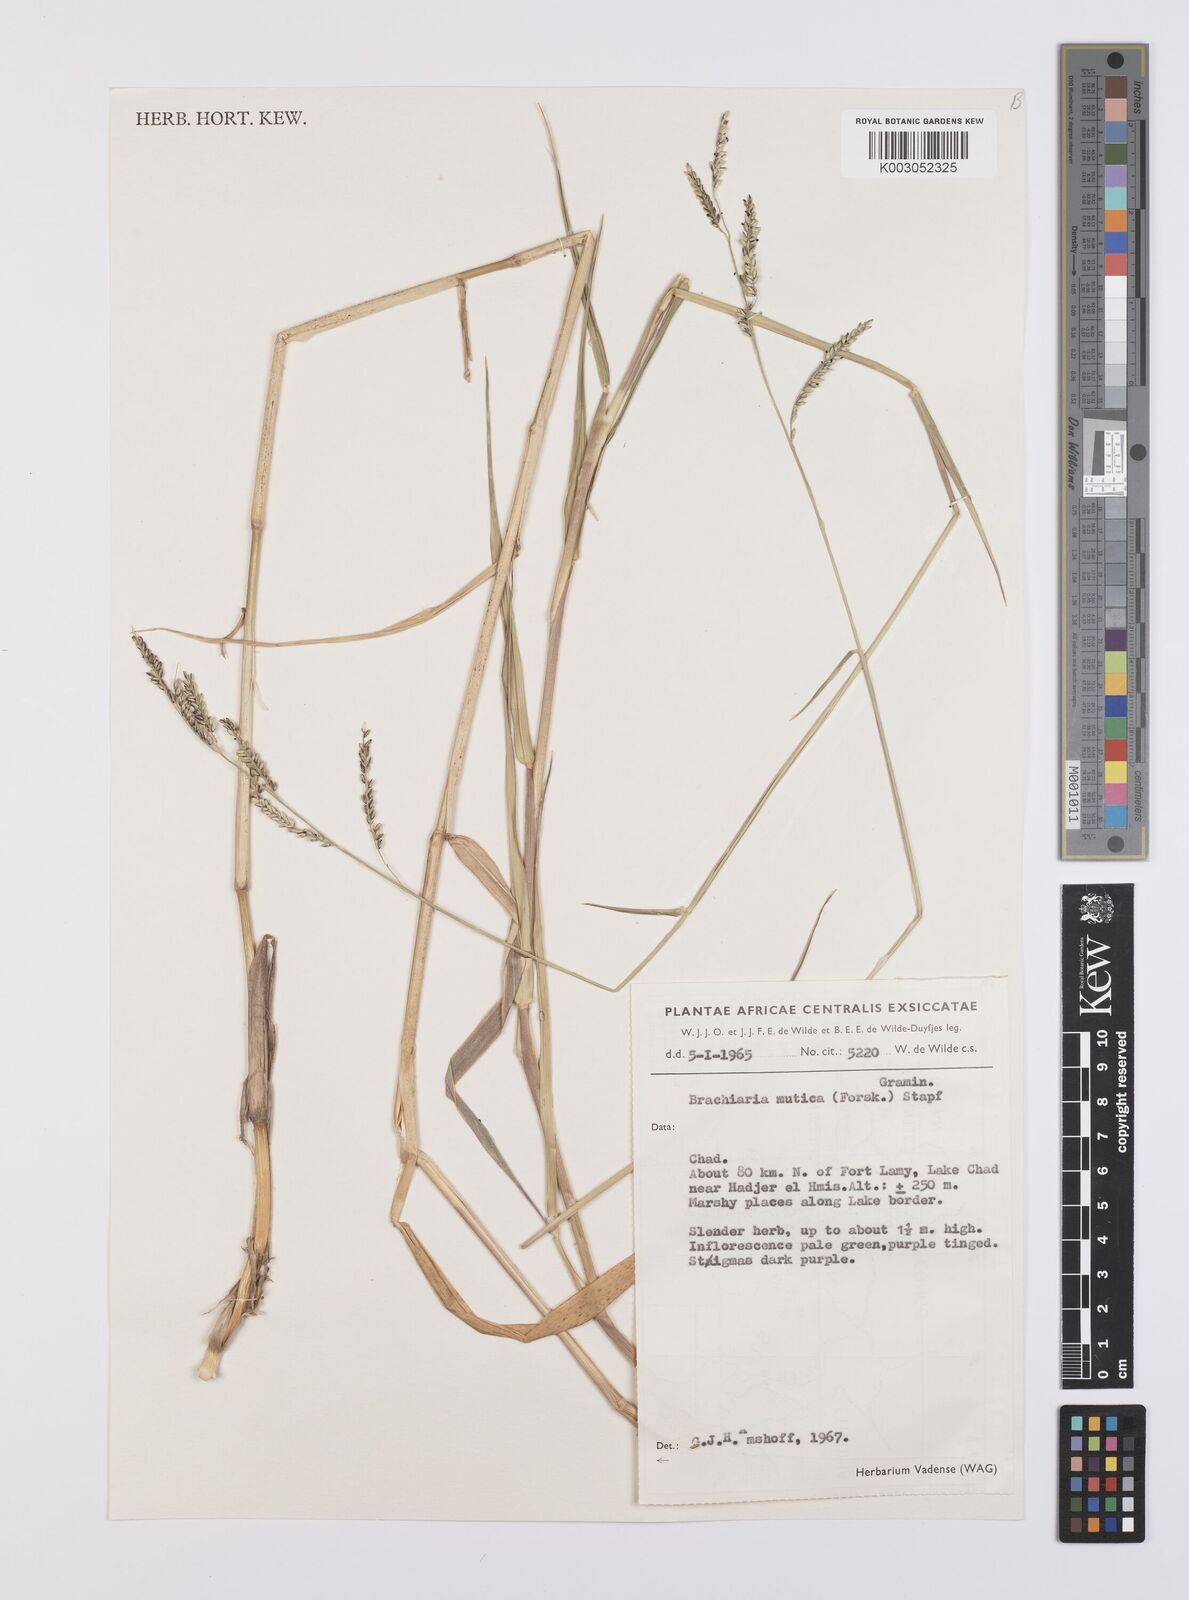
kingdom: Plantae
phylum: Tracheophyta
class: Liliopsida
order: Poales
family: Poaceae
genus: Urochloa
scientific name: Urochloa mutica
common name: Para grass
